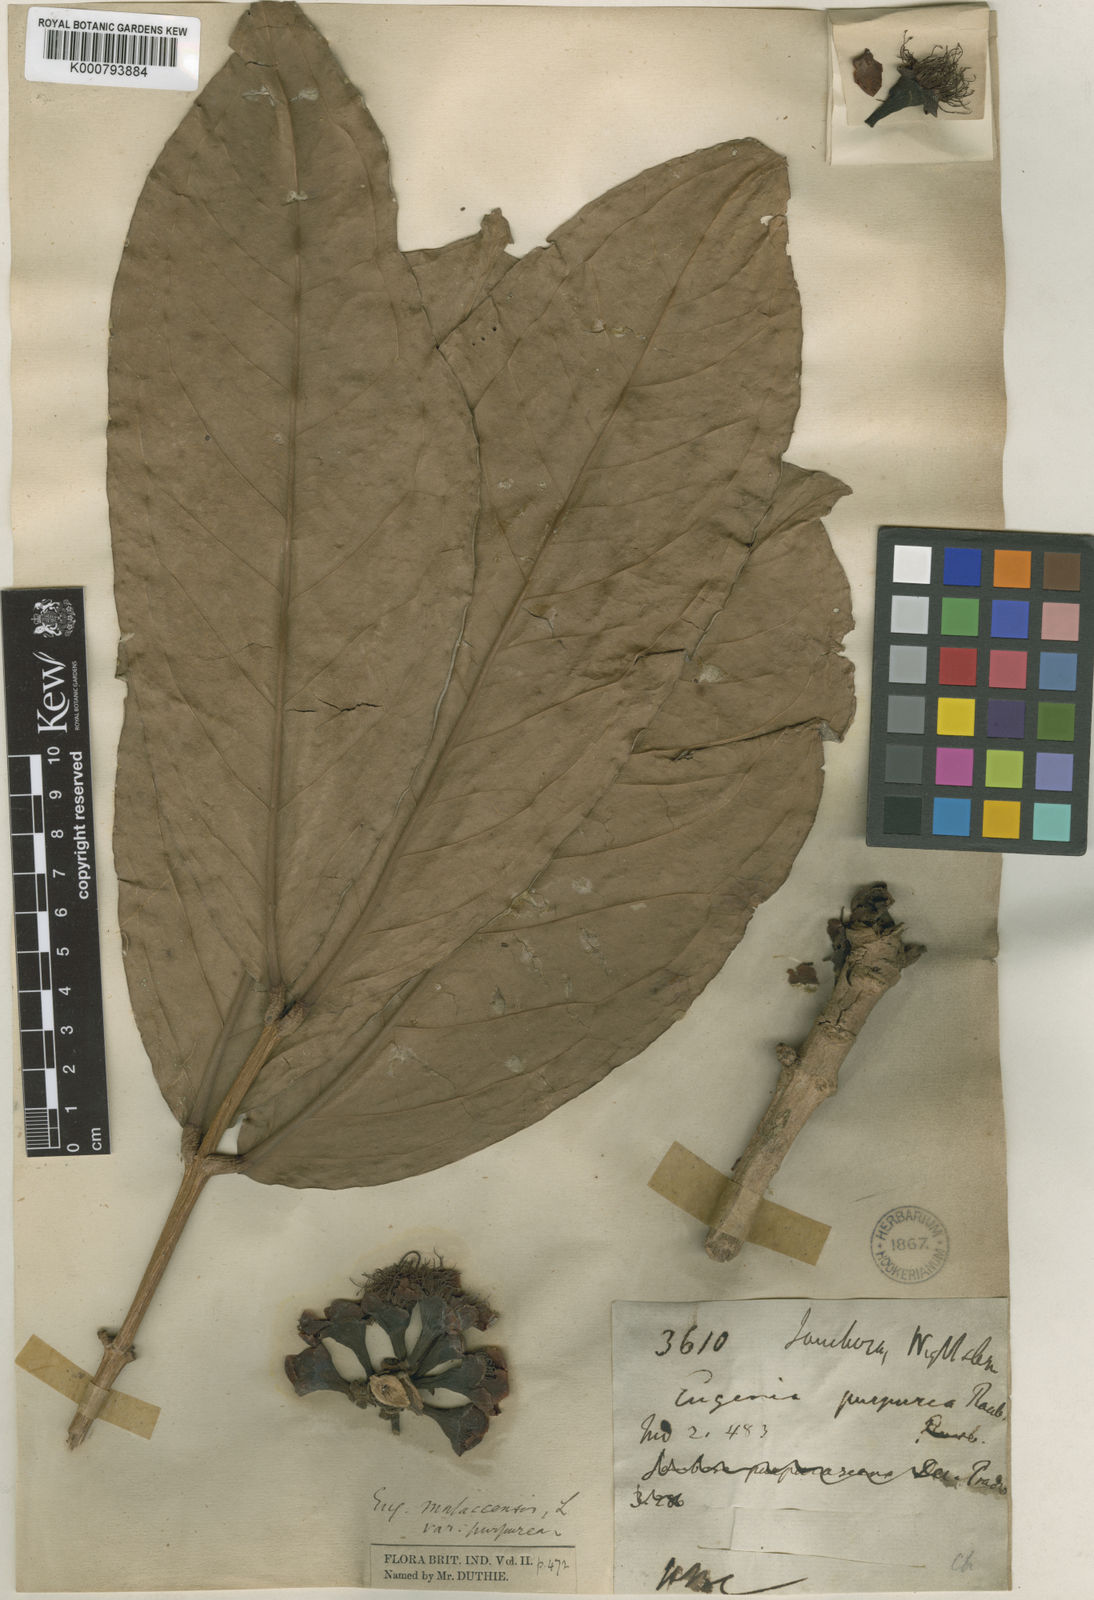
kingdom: Plantae
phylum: Tracheophyta
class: Magnoliopsida
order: Myrtales
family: Myrtaceae
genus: Syzygium
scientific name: Syzygium malaccense
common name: Malaysian apple
